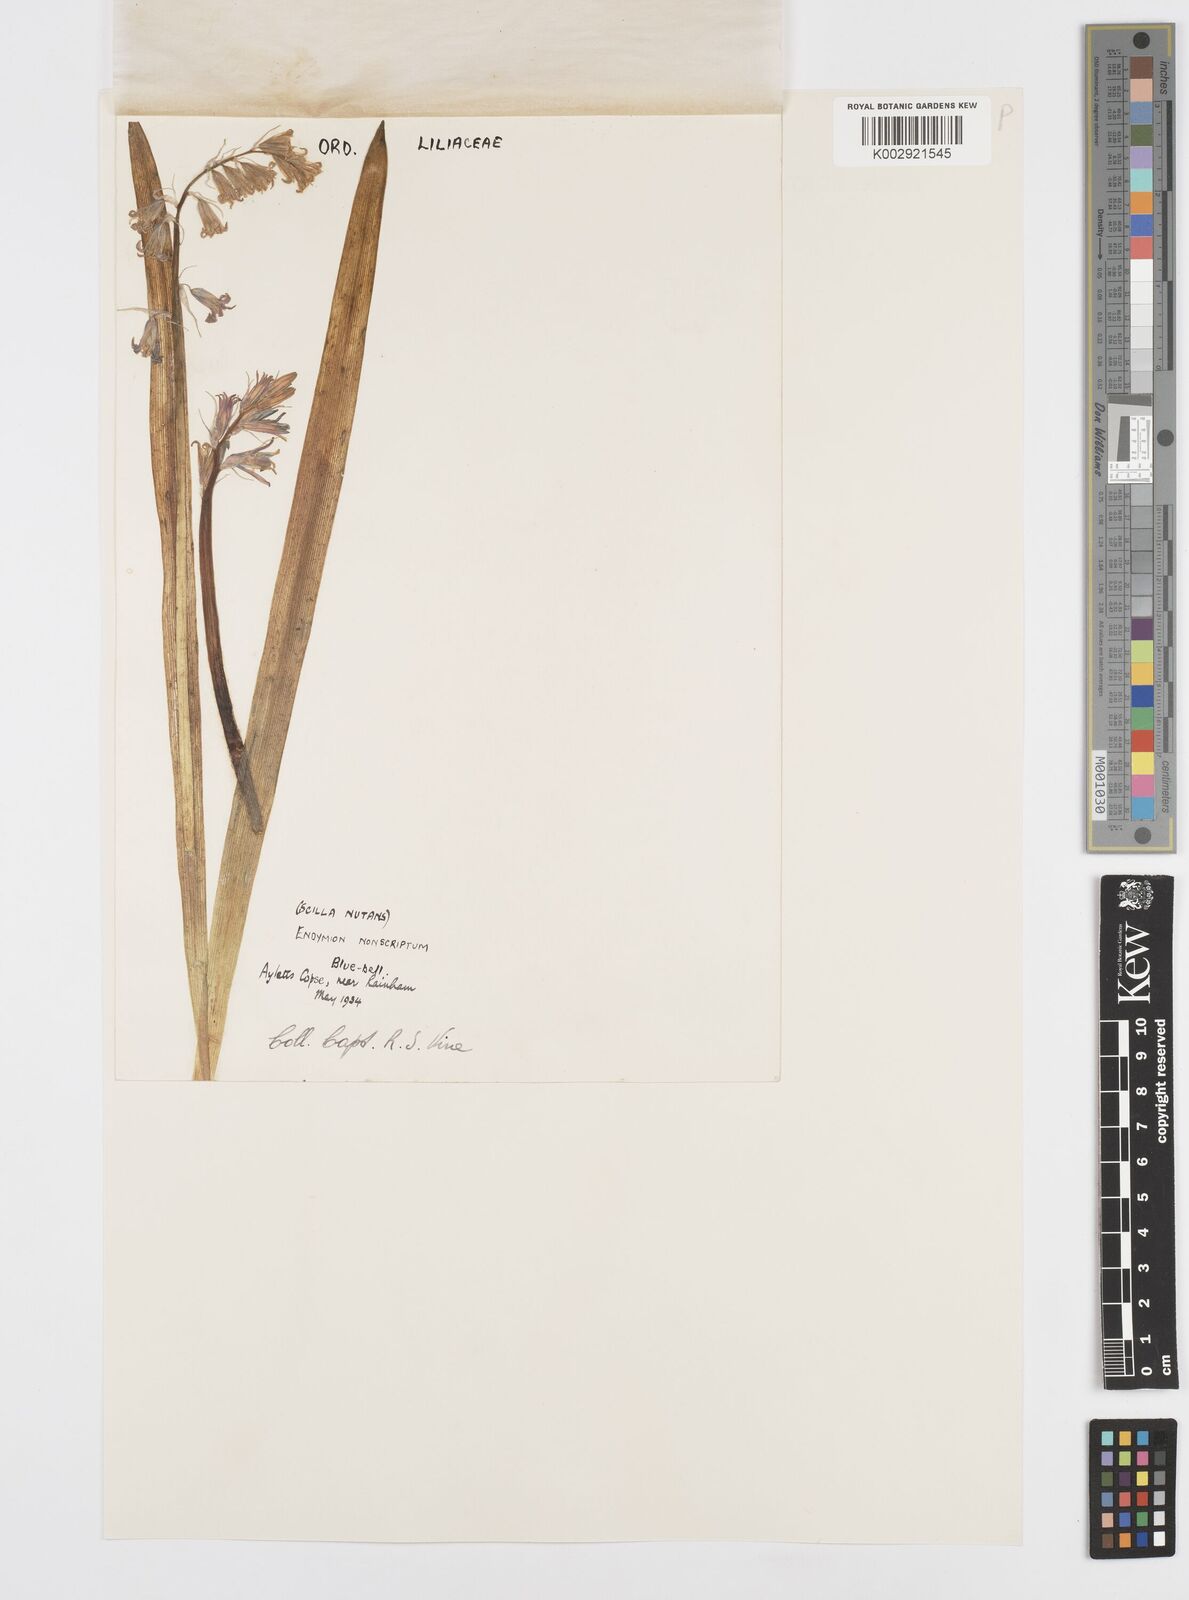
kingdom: Plantae
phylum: Tracheophyta
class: Liliopsida
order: Asparagales
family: Asparagaceae
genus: Hyacinthoides
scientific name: Hyacinthoides non-scripta
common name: Bluebell
